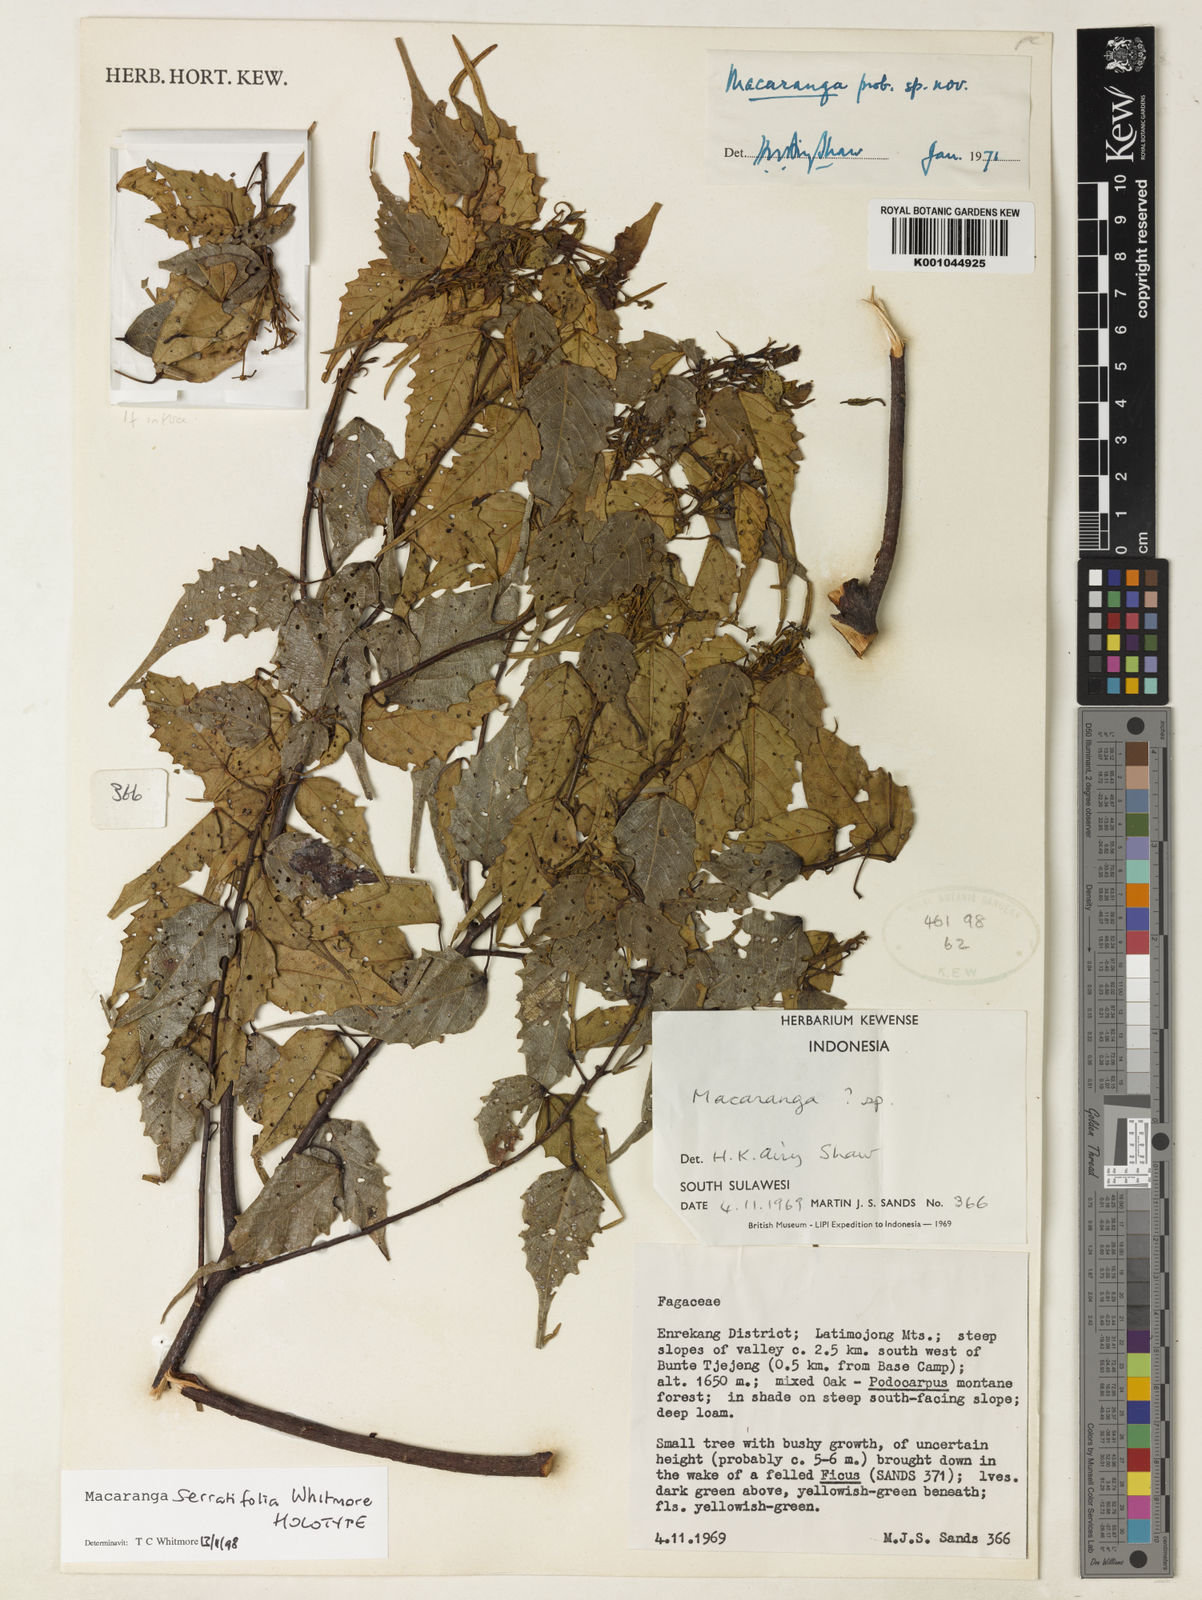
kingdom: Plantae
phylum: Tracheophyta
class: Magnoliopsida
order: Malpighiales
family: Euphorbiaceae
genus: Macaranga
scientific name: Macaranga serratifolia
